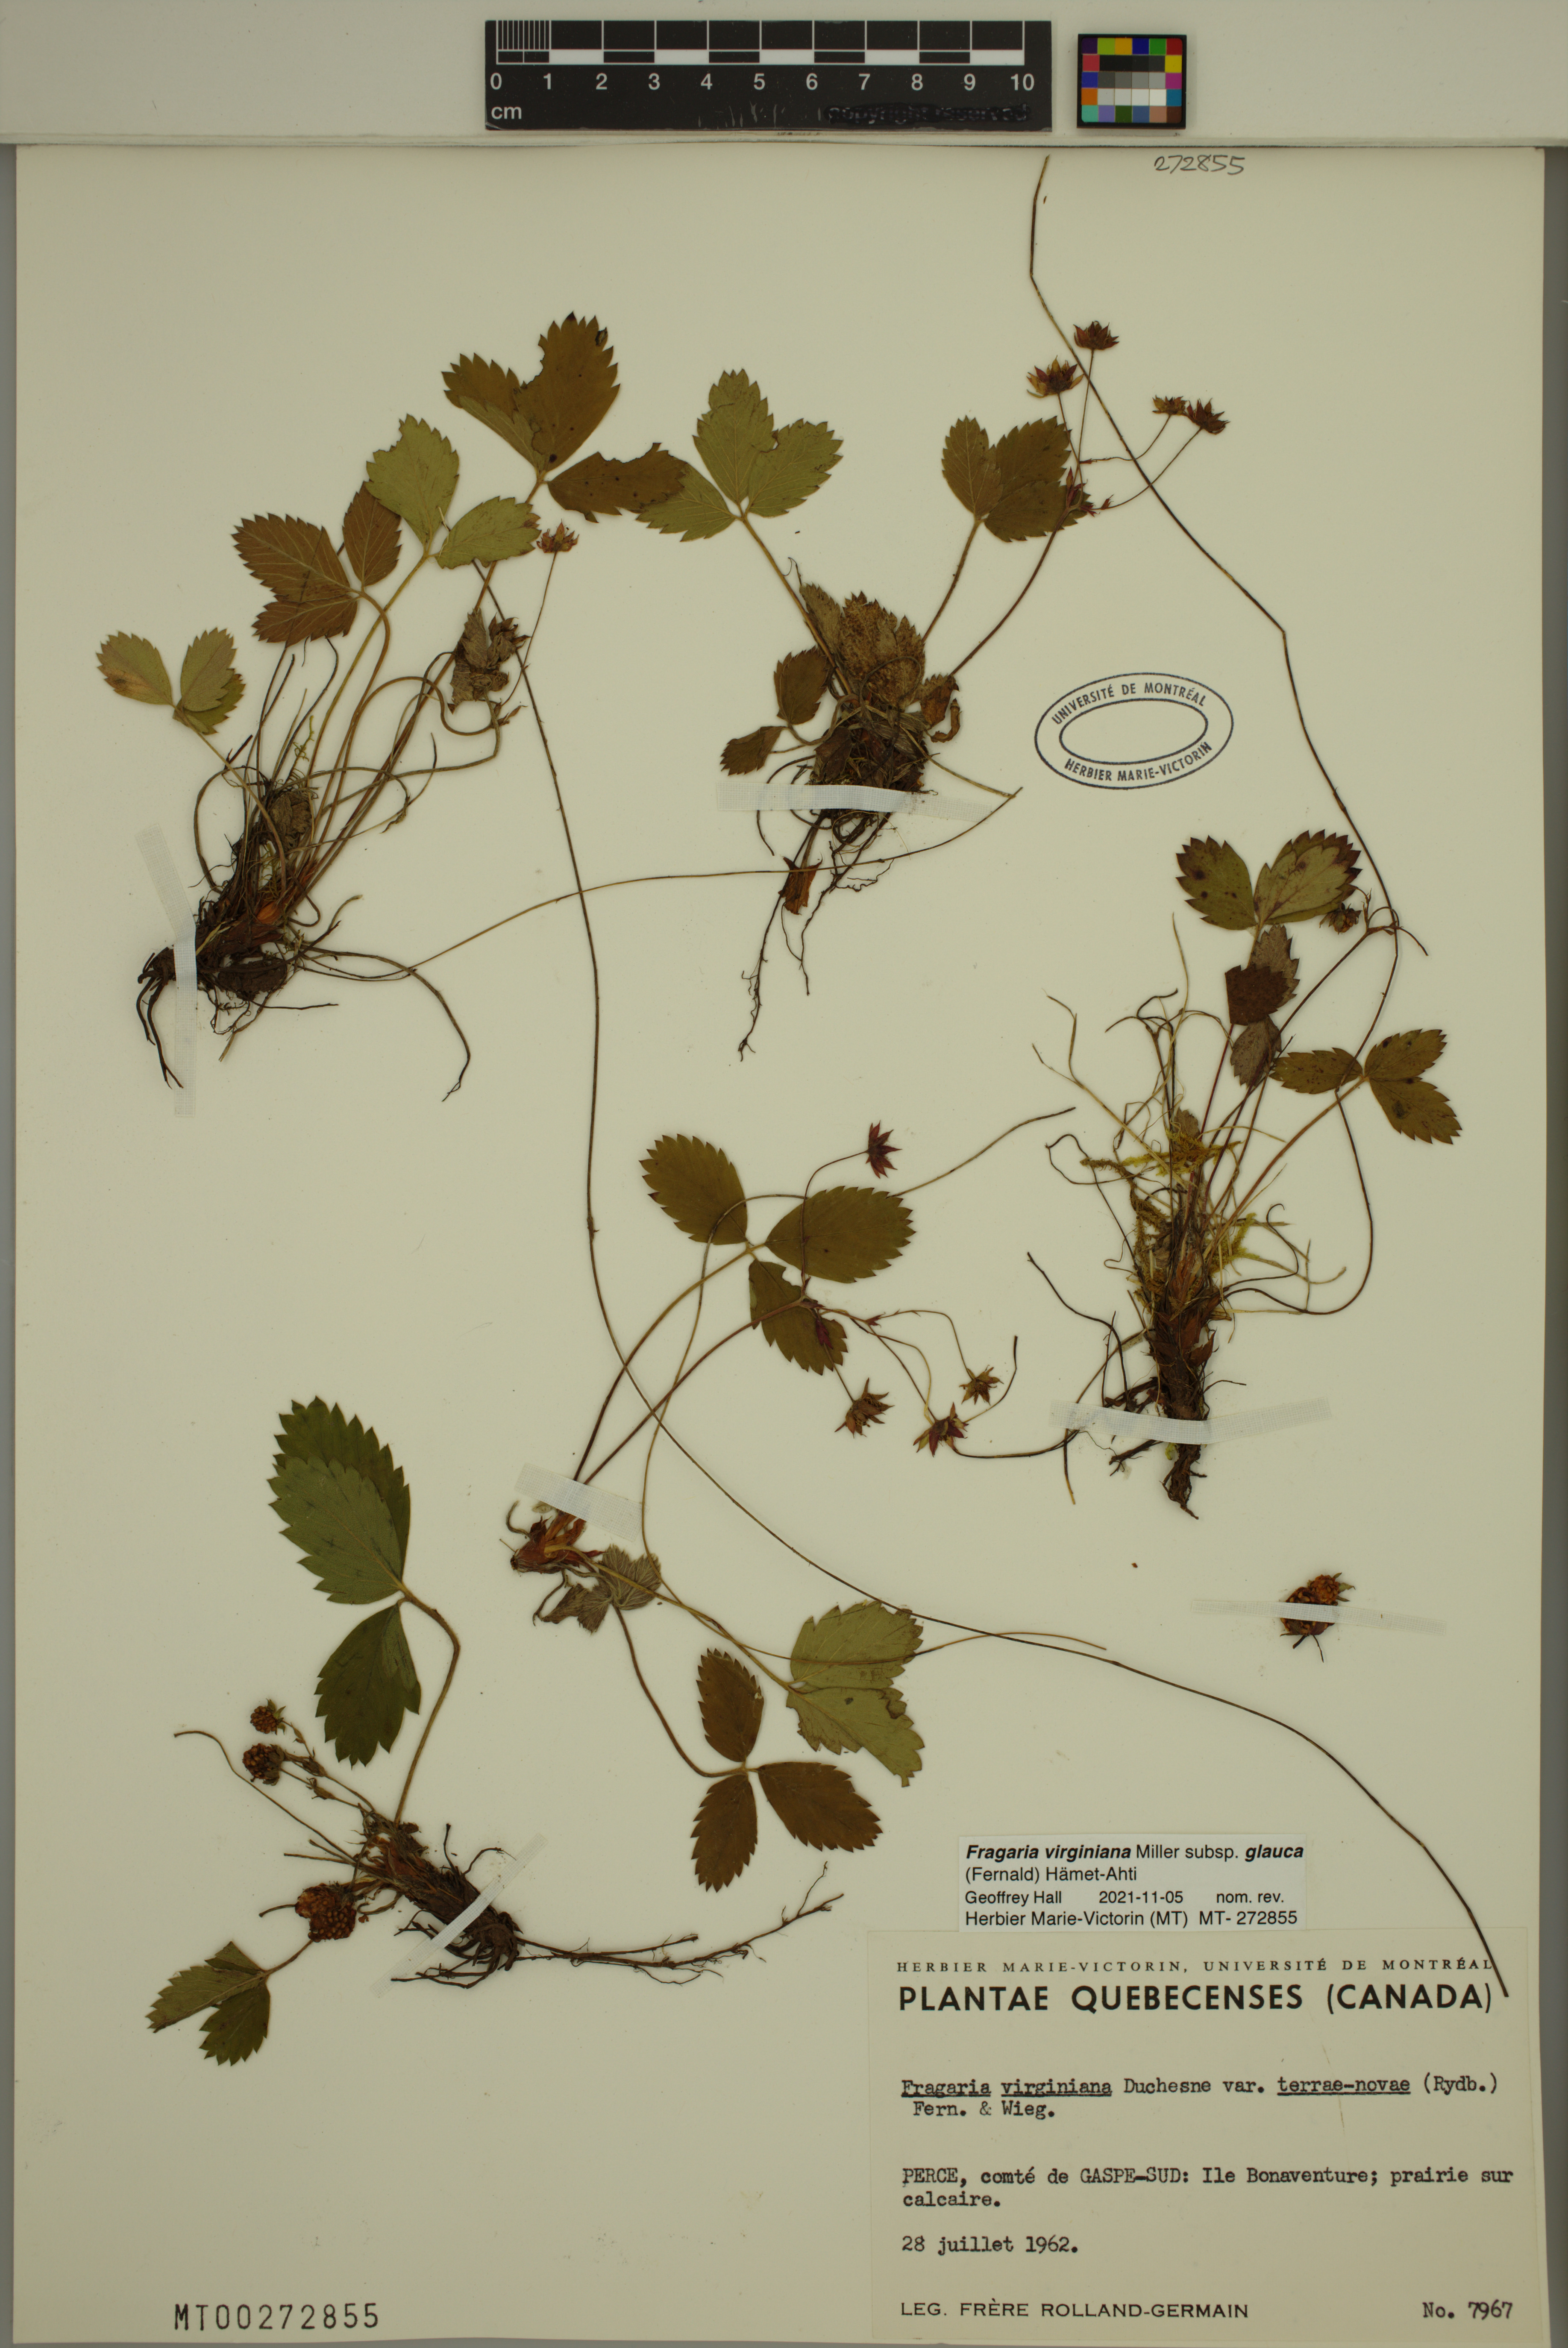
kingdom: Plantae
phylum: Tracheophyta
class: Magnoliopsida
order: Rosales
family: Rosaceae
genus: Fragaria
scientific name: Fragaria virginiana
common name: Thickleaved wild strawberry
